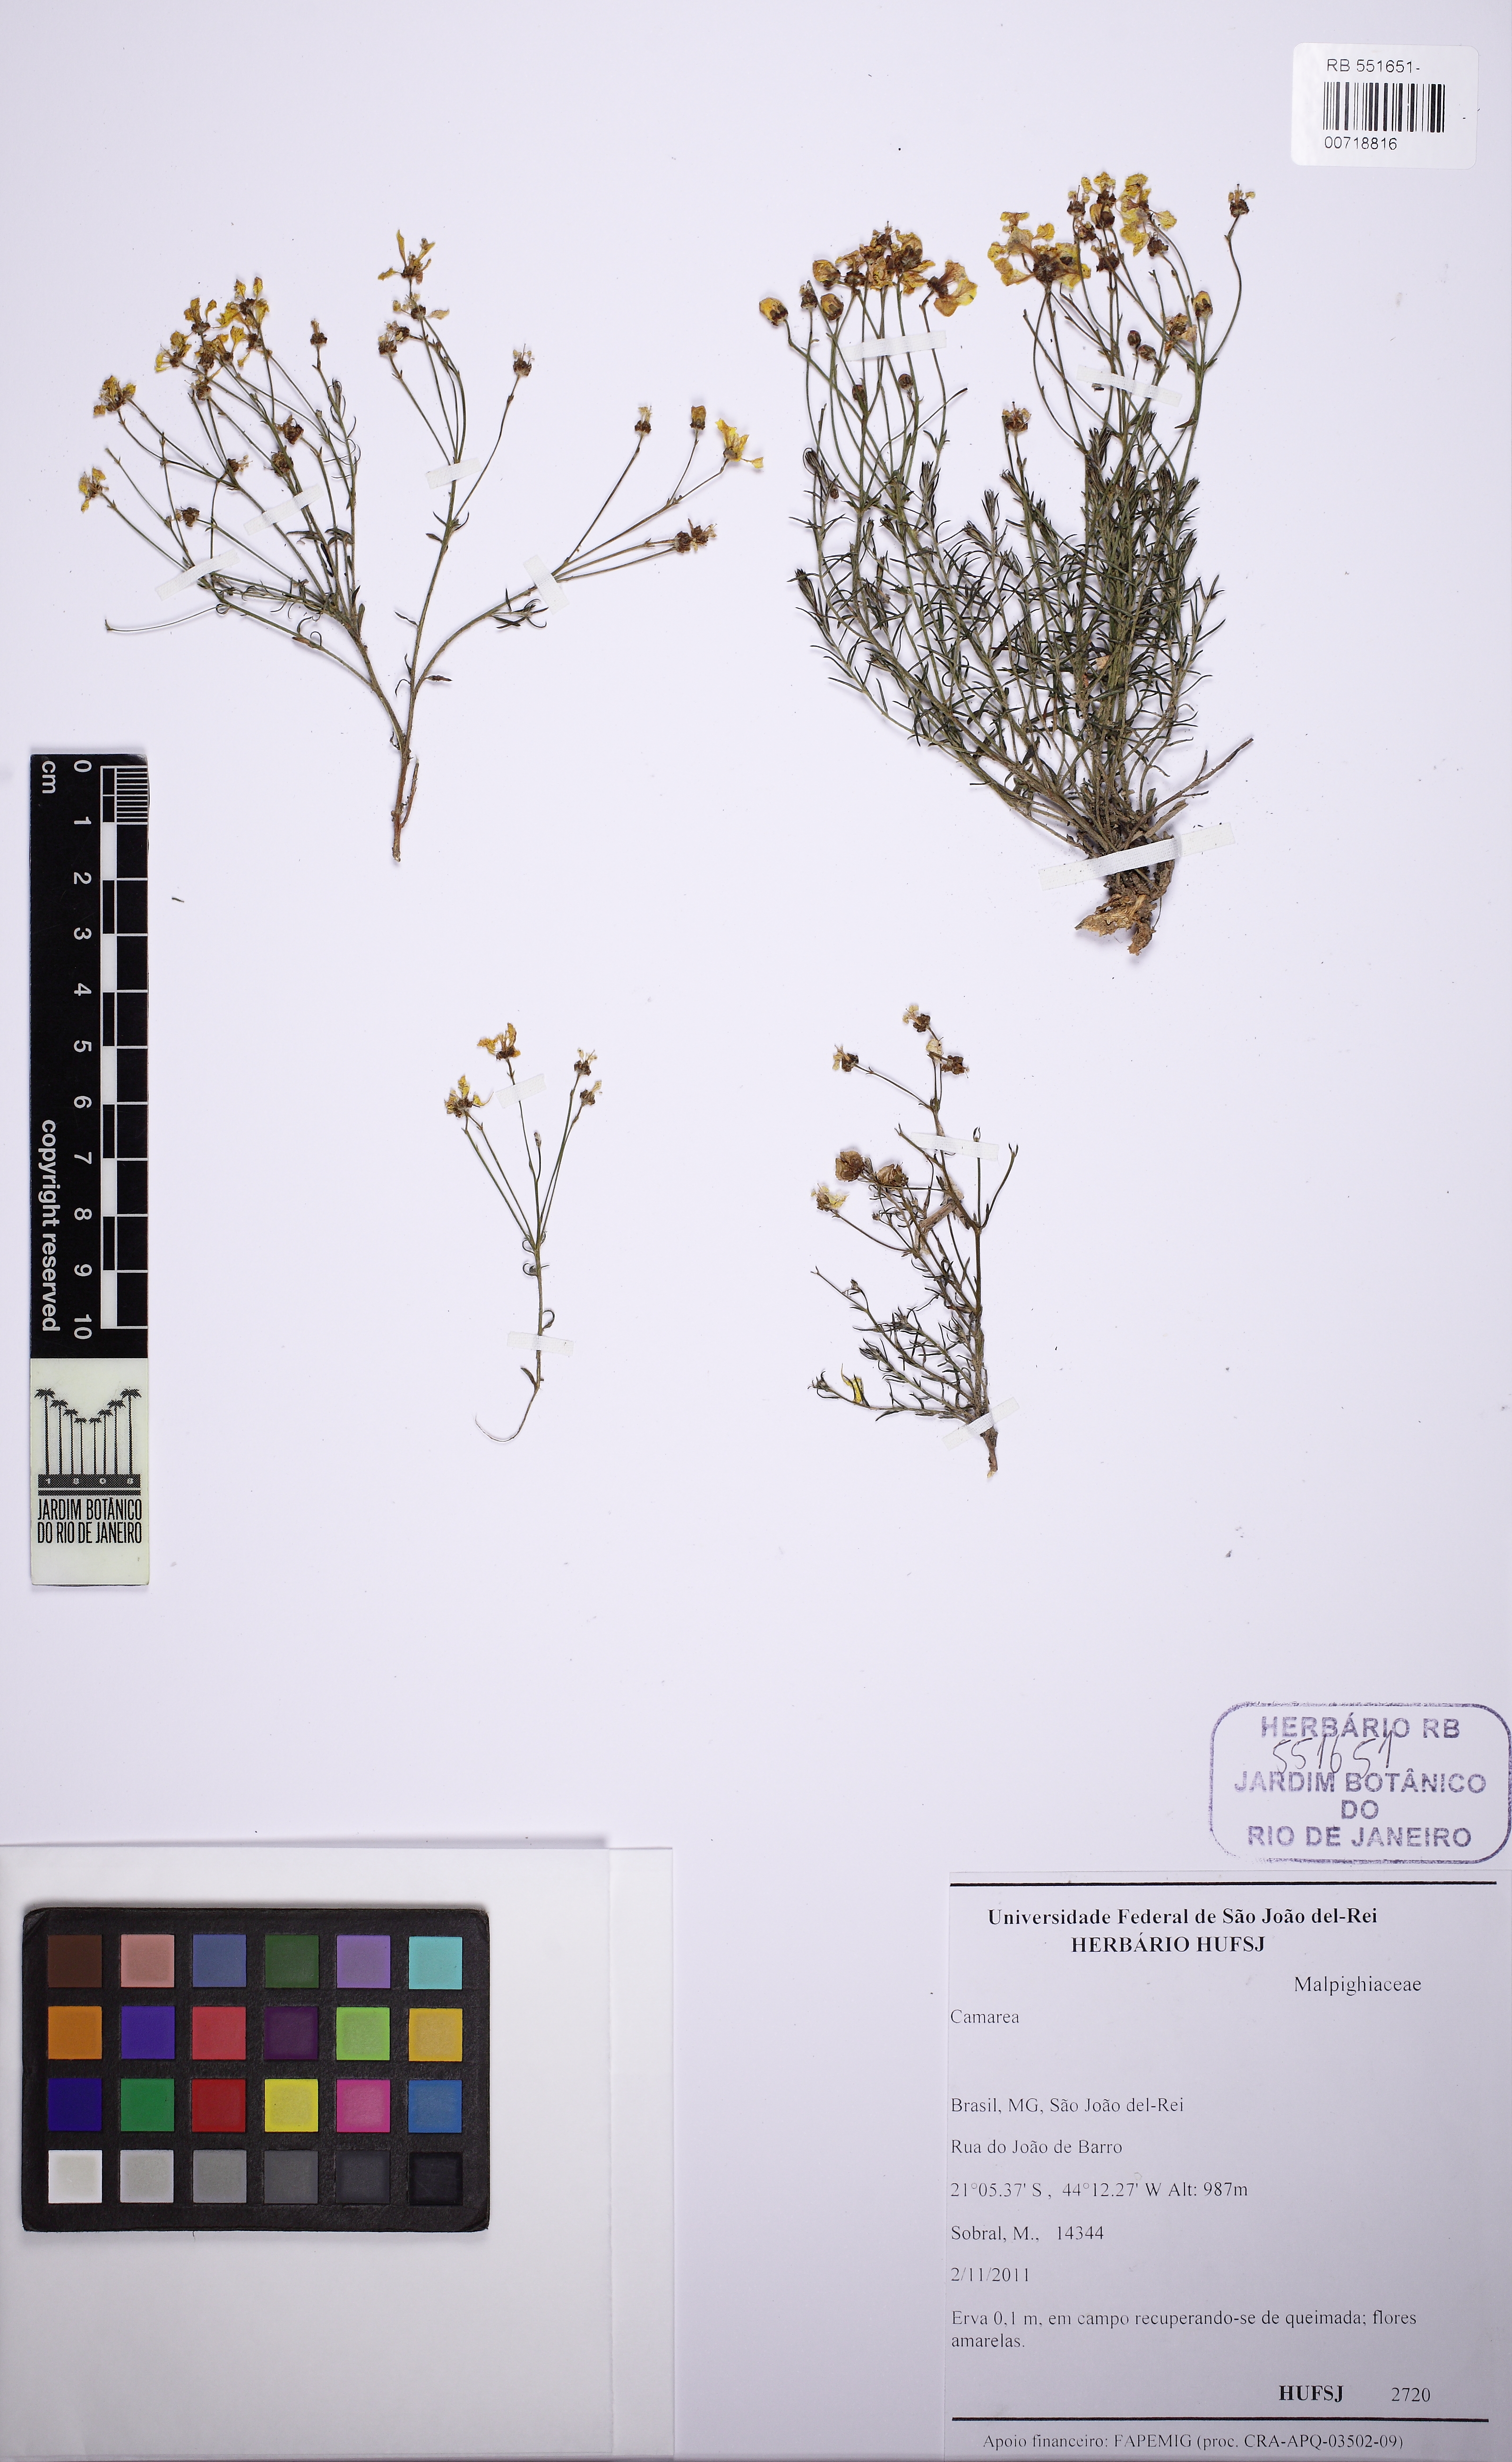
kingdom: Plantae
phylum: Tracheophyta
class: Magnoliopsida
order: Malpighiales
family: Malpighiaceae
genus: Camarea
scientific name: Camarea ericoides
